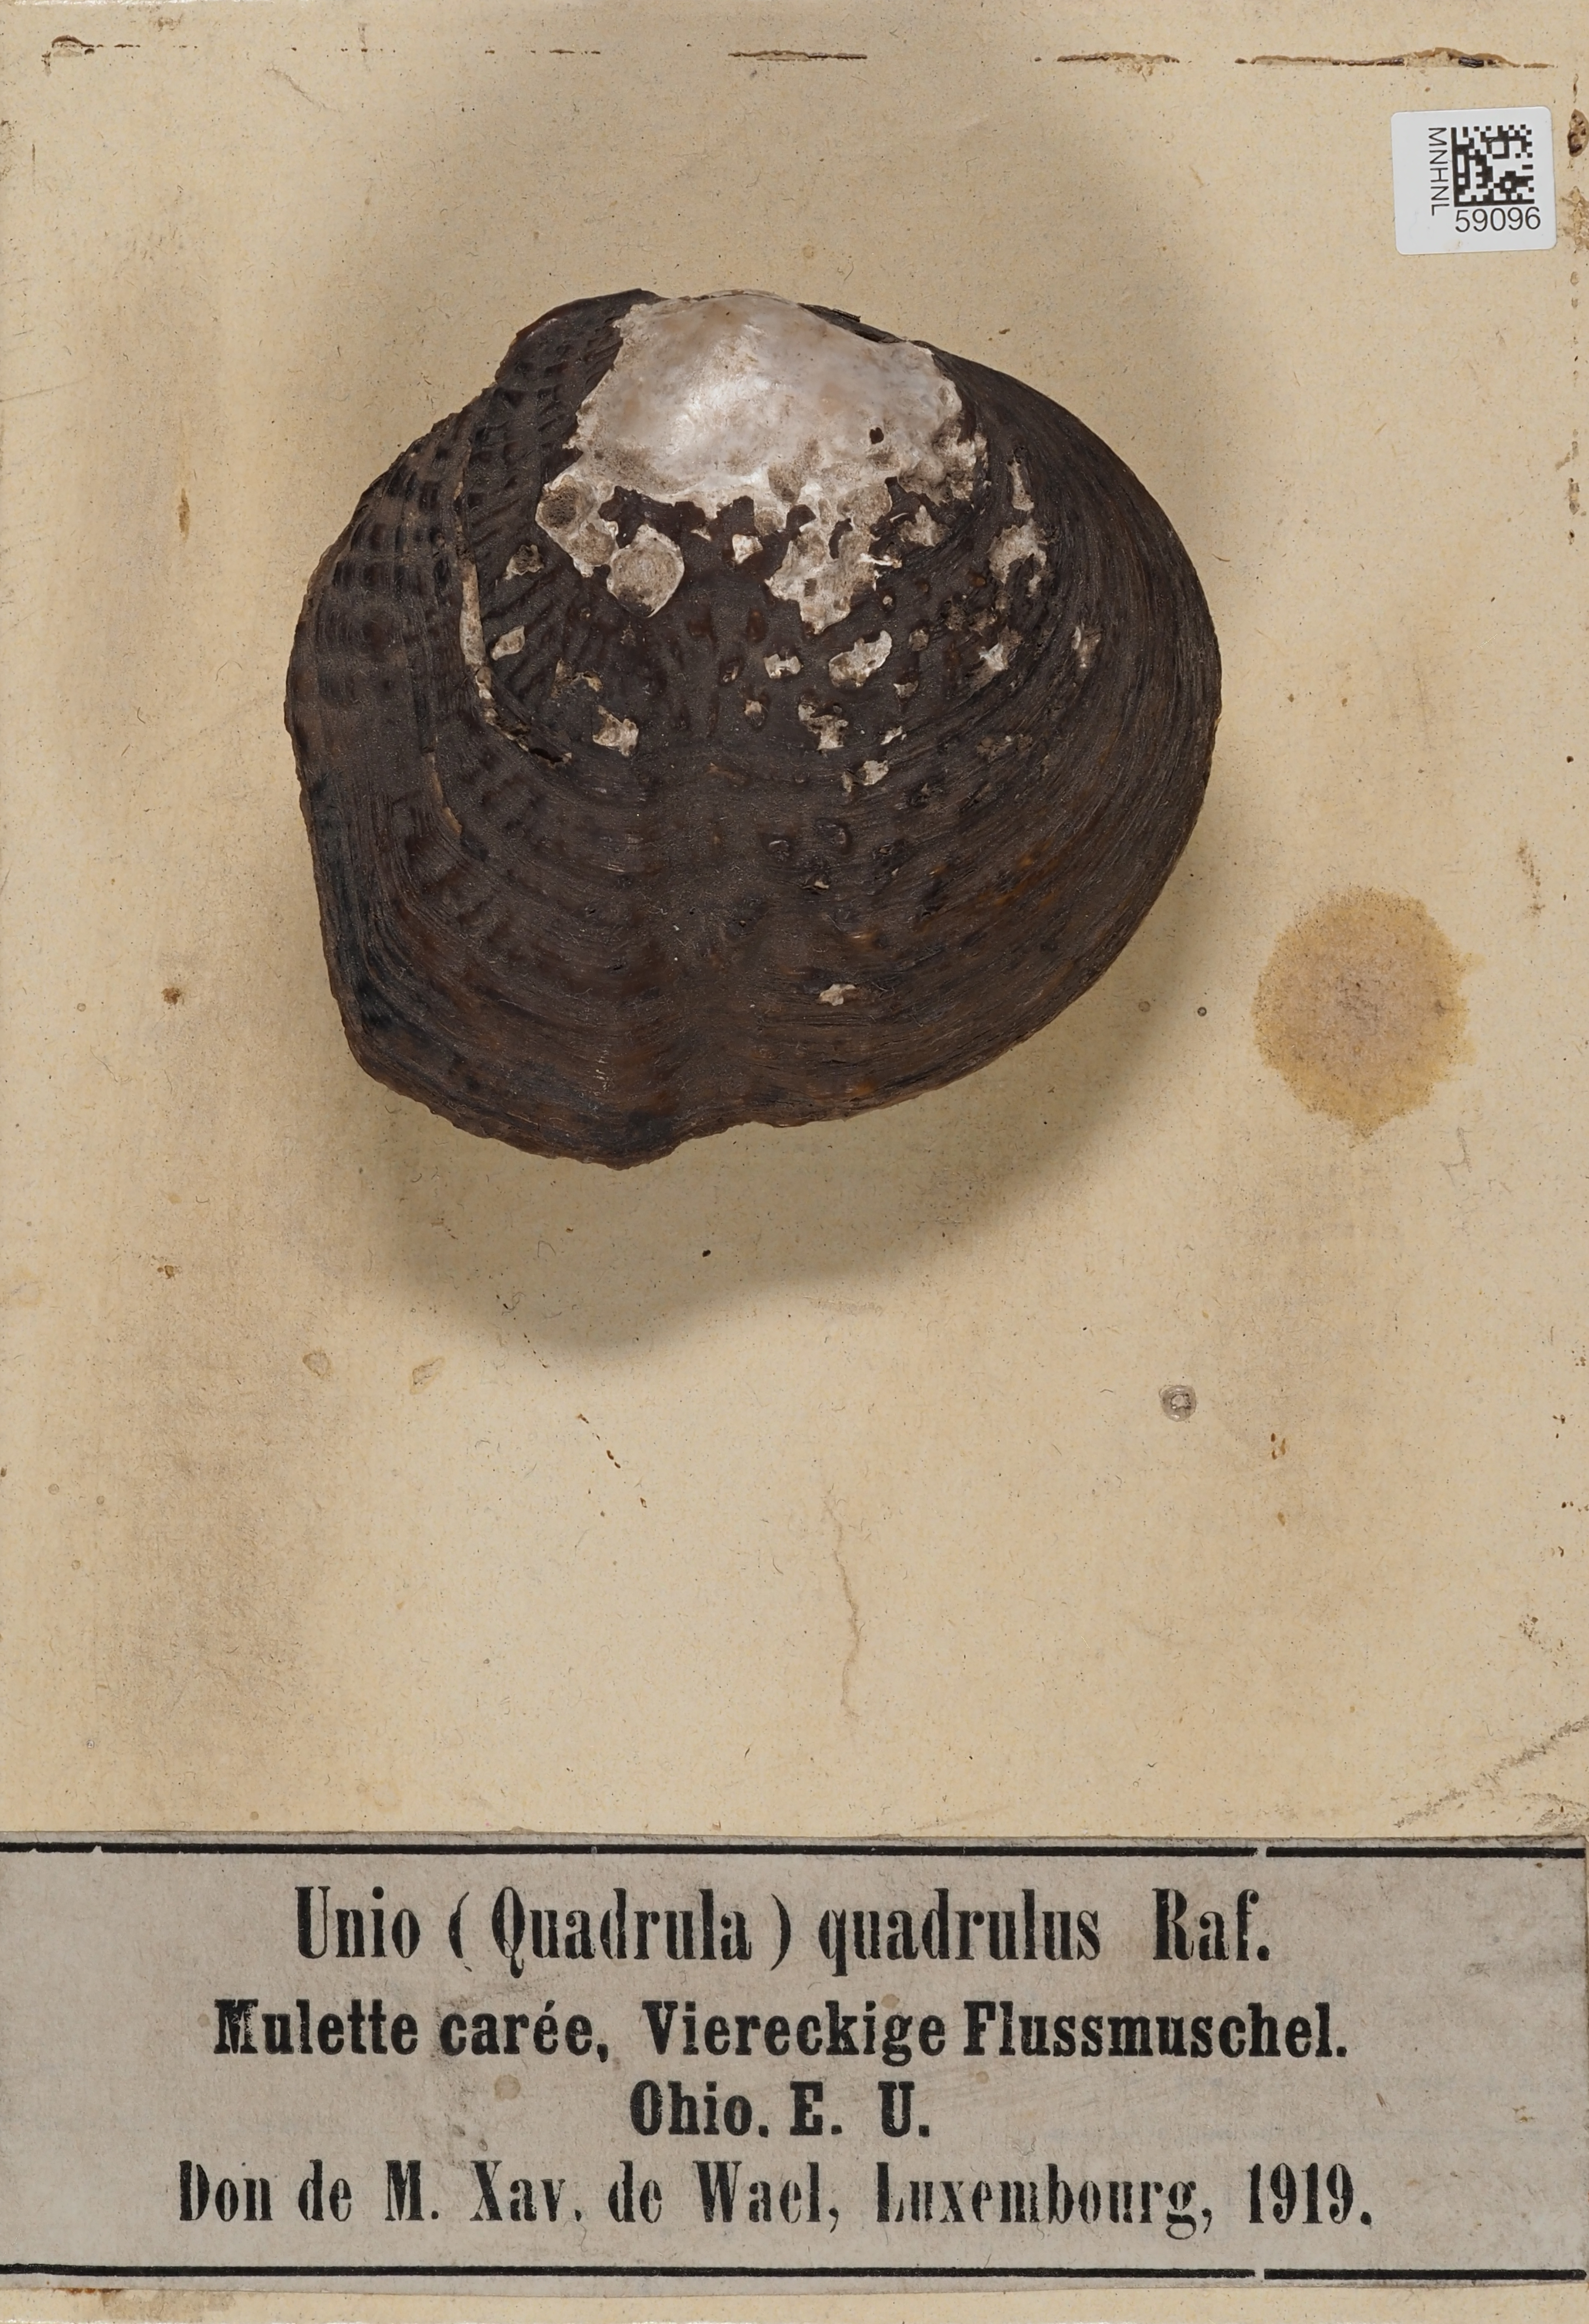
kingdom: Animalia
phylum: Mollusca
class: Bivalvia
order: Unionida
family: Unionidae
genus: Quadrula
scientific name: Quadrula quadrula
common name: Mapleleaf
